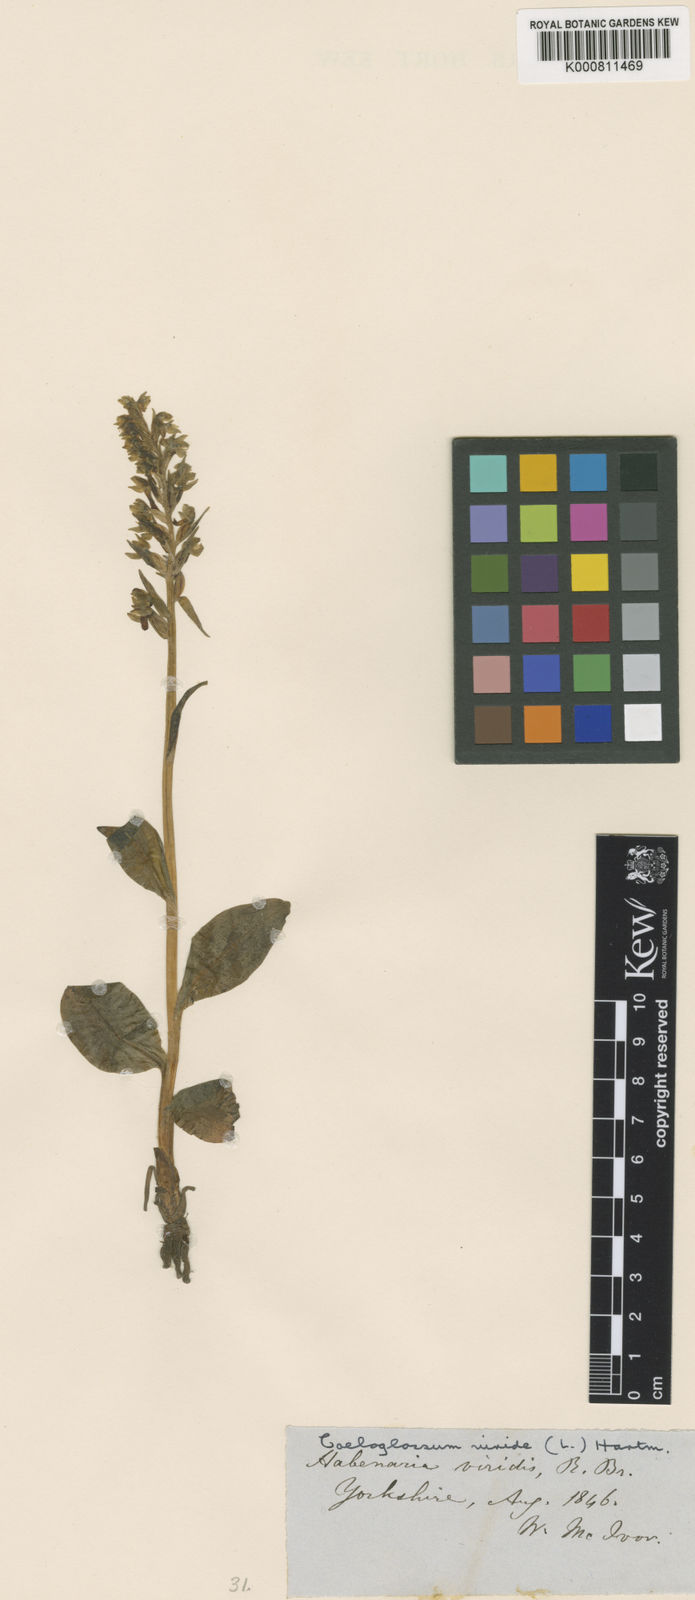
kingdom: Plantae
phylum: Tracheophyta
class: Liliopsida
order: Asparagales
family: Orchidaceae
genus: Dactylorhiza
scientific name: Dactylorhiza viridis
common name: Longbract frog orchid
